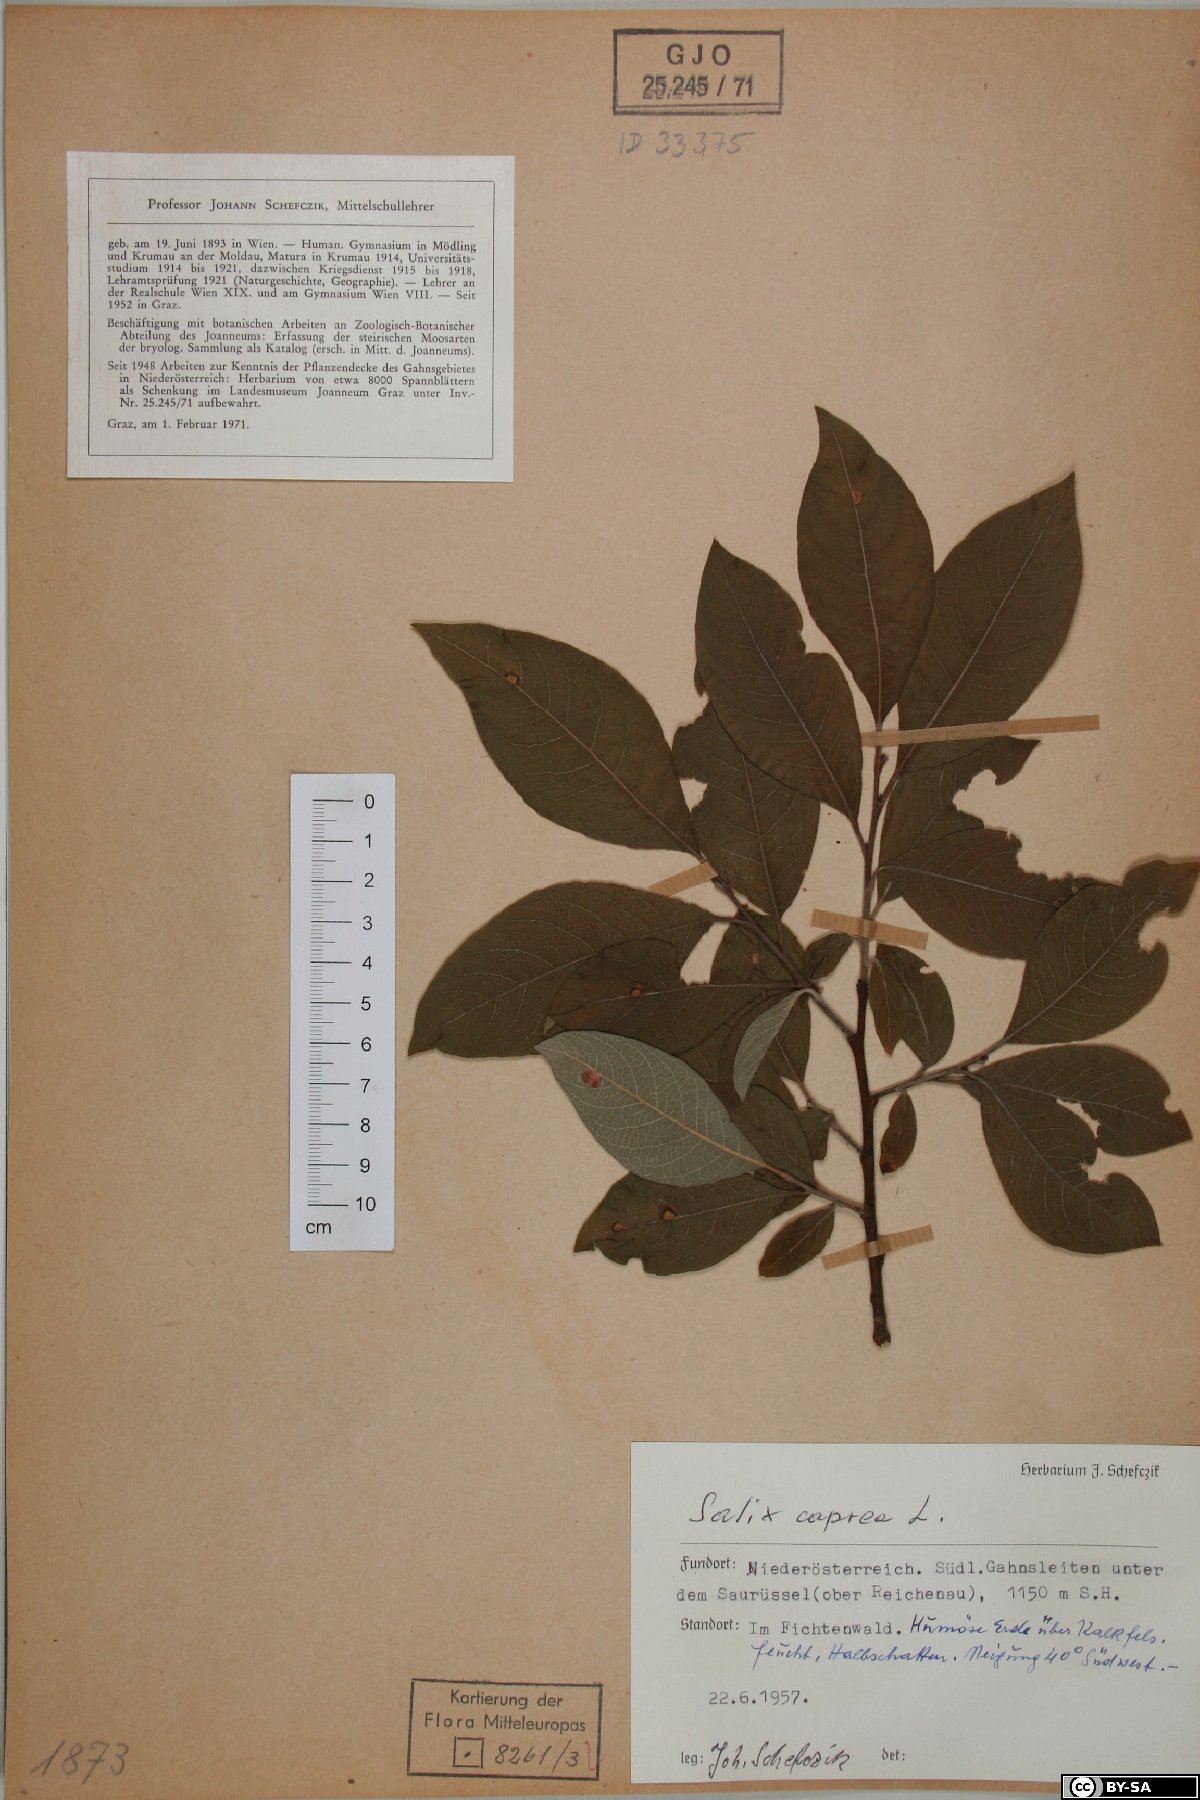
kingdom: Plantae
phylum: Tracheophyta
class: Magnoliopsida
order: Malpighiales
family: Salicaceae
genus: Salix
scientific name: Salix caprea
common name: Goat willow
